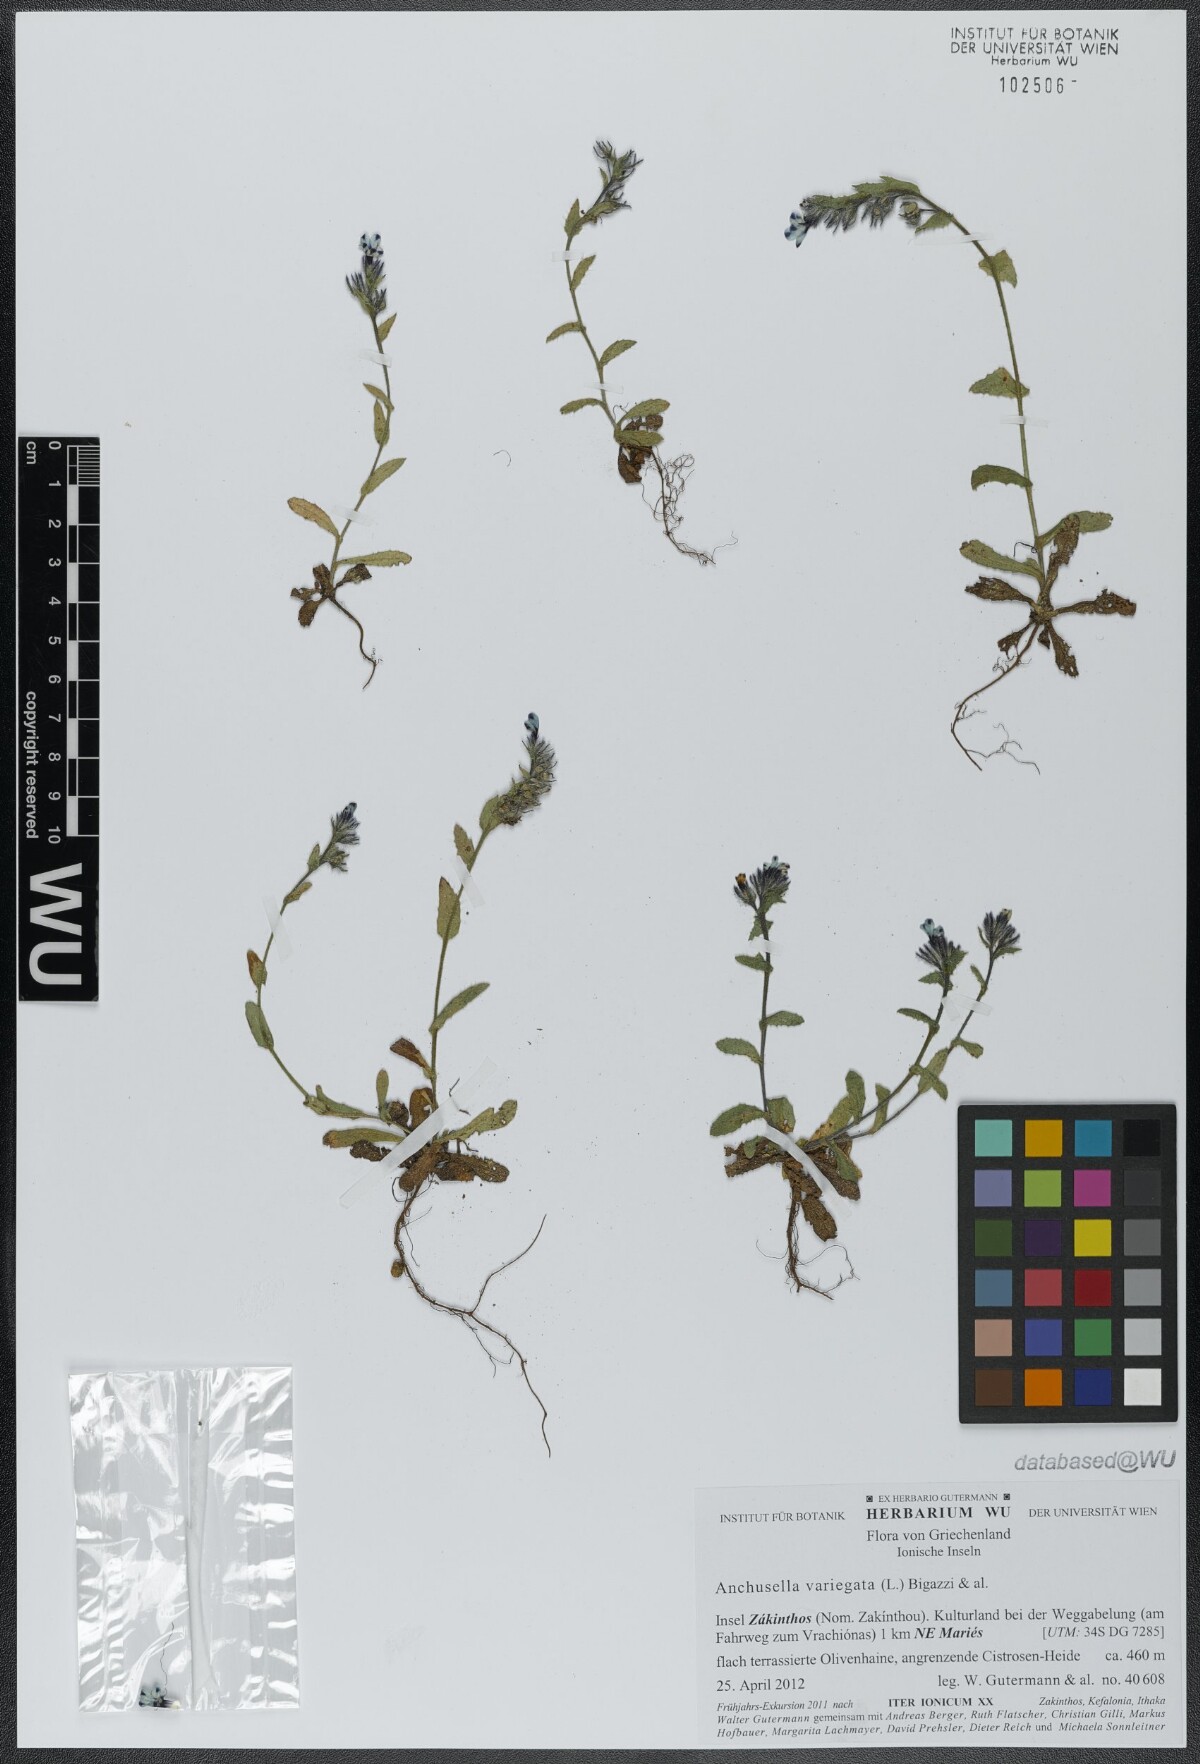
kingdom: Plantae
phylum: Tracheophyta
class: Magnoliopsida
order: Boraginales
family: Boraginaceae
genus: Anchusella
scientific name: Anchusella variegata
